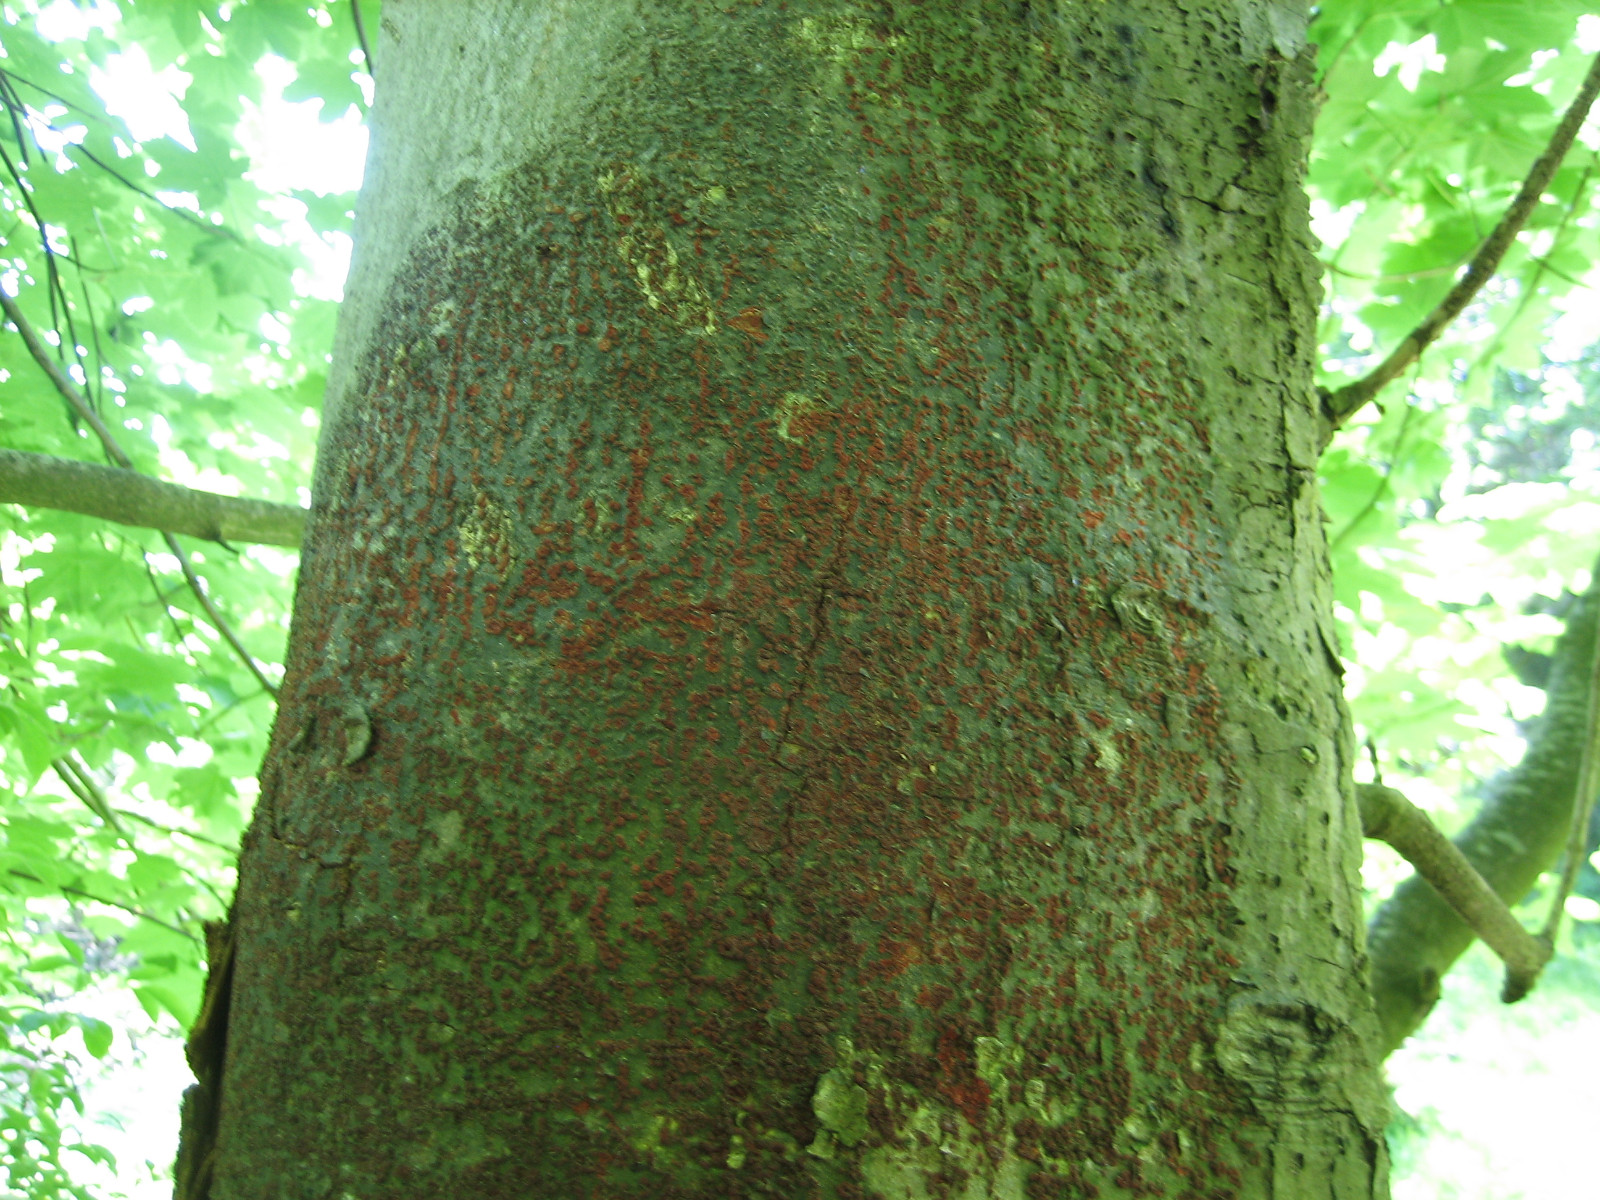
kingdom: Fungi
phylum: Ascomycota
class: Sordariomycetes
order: Hypocreales
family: Nectriaceae
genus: Neonectria
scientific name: Neonectria coccinea
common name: bøgebark-cinnobersvamp
